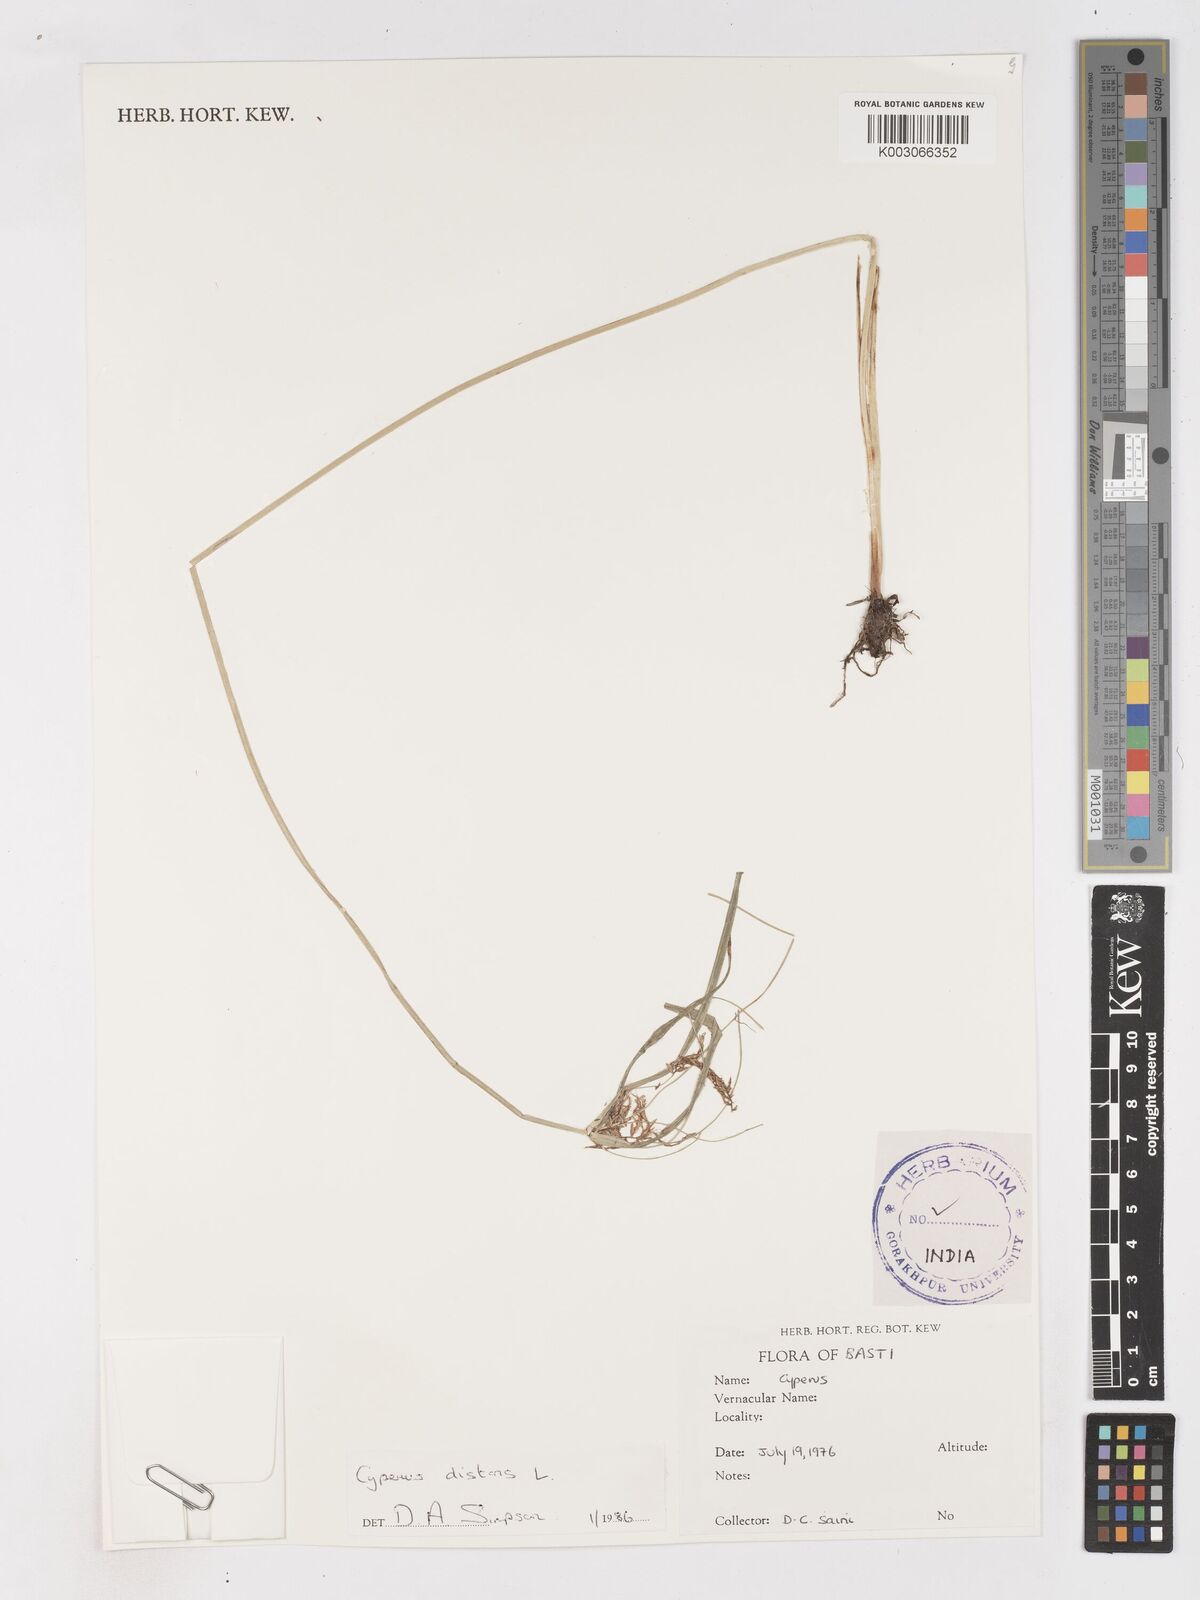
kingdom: Plantae
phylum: Tracheophyta
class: Liliopsida
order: Poales
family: Cyperaceae
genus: Cyperus
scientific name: Cyperus distans
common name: Slender cyperus
